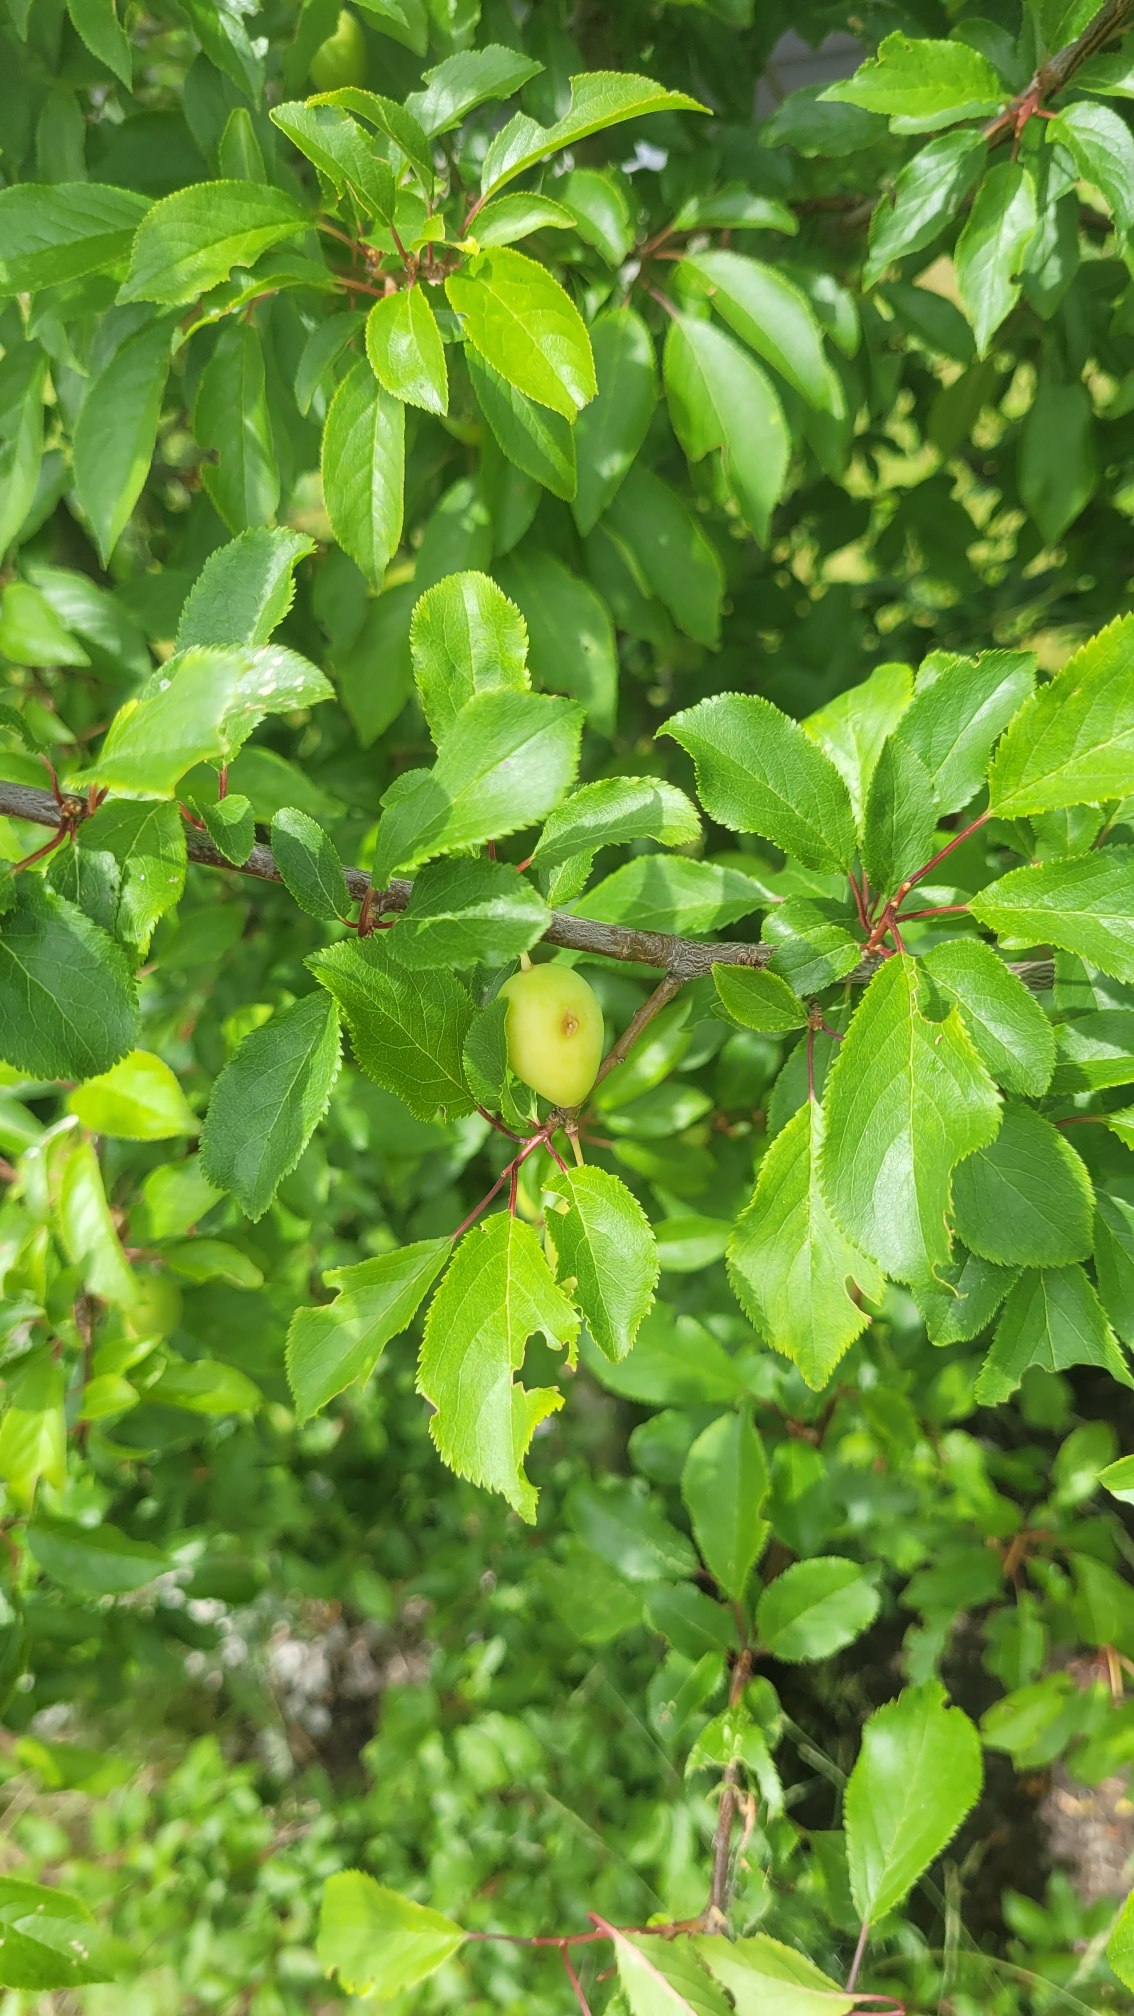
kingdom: Plantae
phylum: Tracheophyta
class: Magnoliopsida
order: Rosales
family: Rosaceae
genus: Prunus
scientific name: Prunus cerasifera
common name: Mirabel
